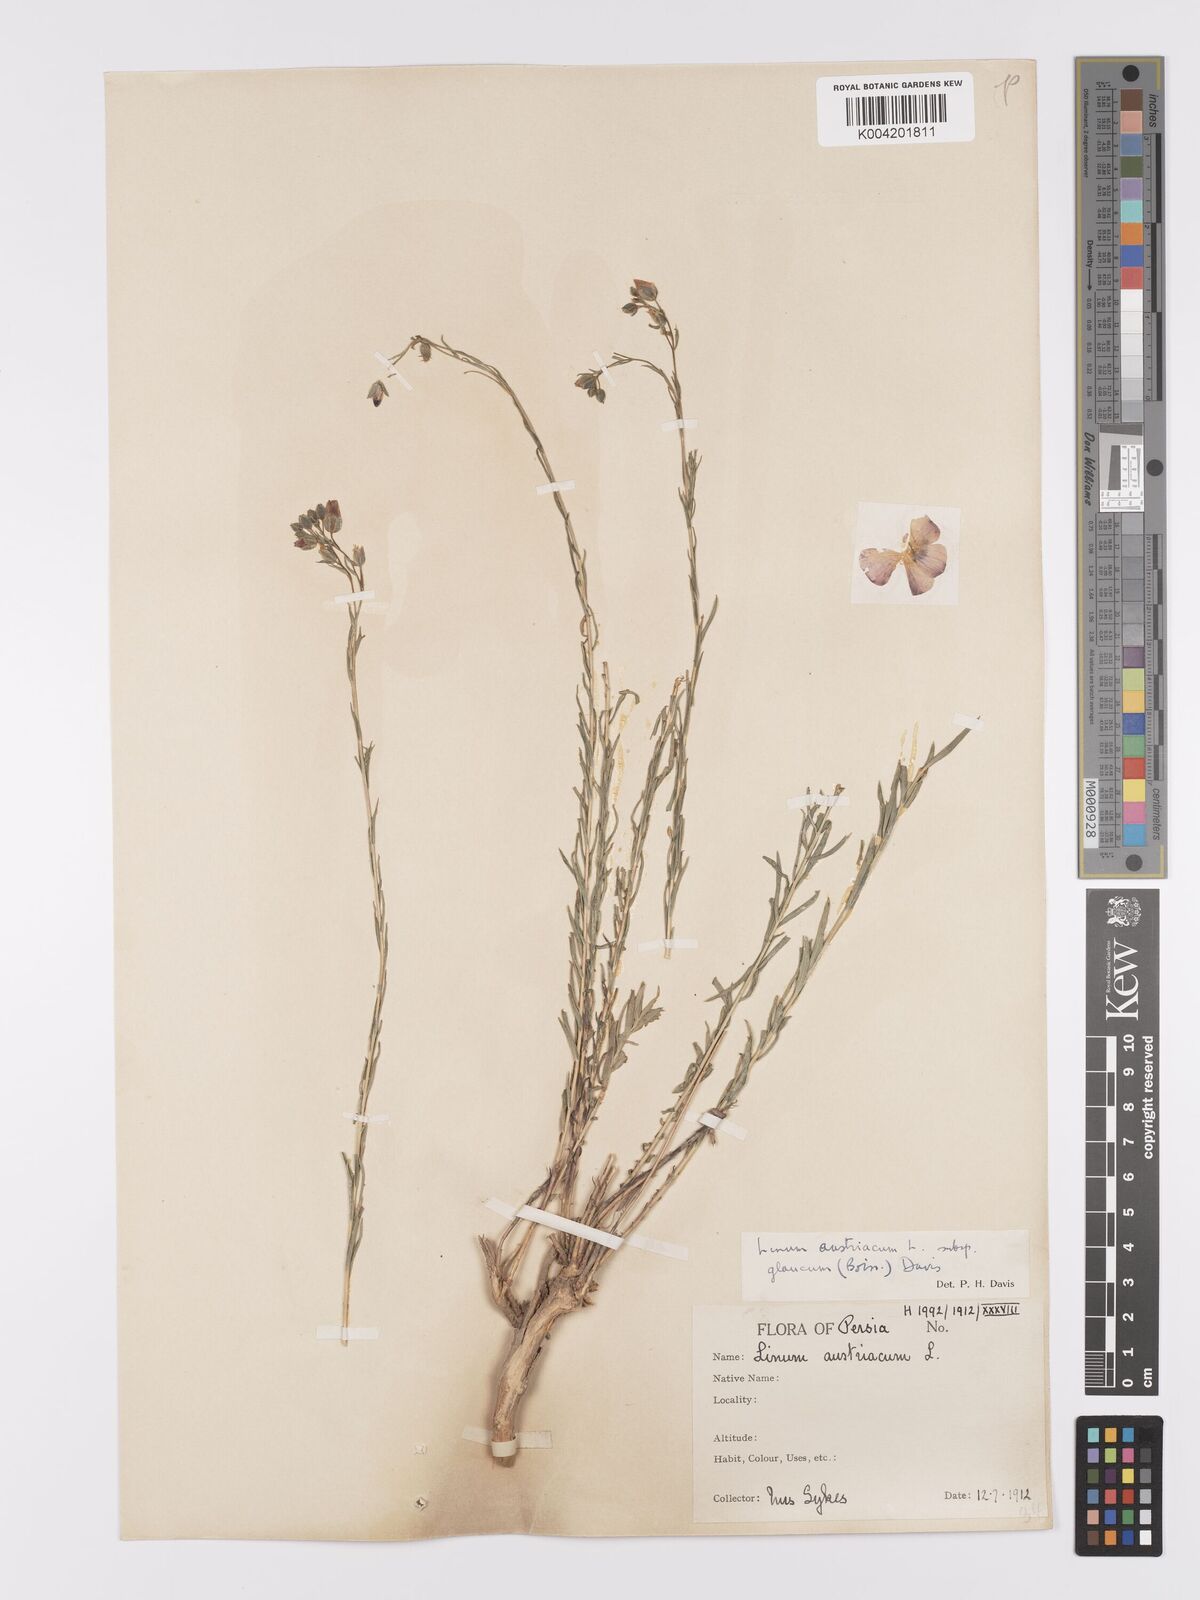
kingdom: Plantae
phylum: Tracheophyta
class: Magnoliopsida
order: Malpighiales
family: Linaceae
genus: Linum
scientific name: Linum
